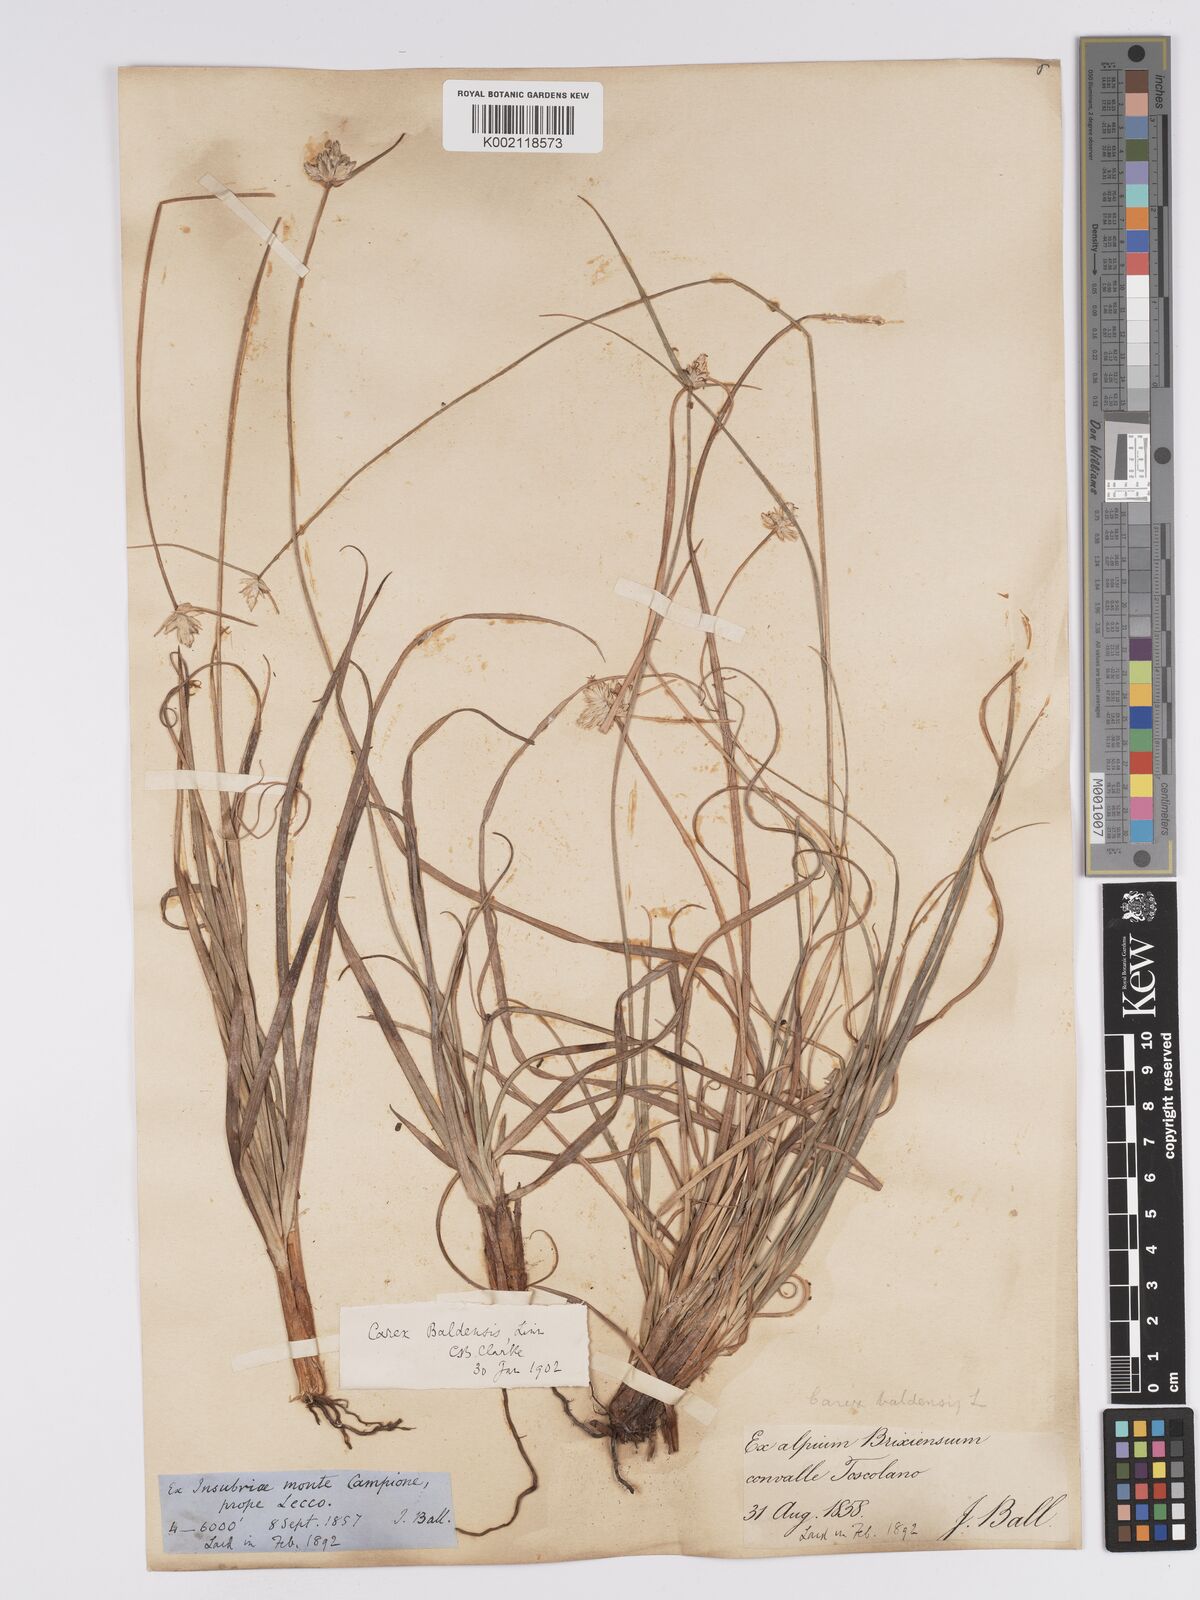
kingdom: Plantae
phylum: Tracheophyta
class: Liliopsida
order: Poales
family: Cyperaceae
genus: Carex
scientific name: Carex baldensis
